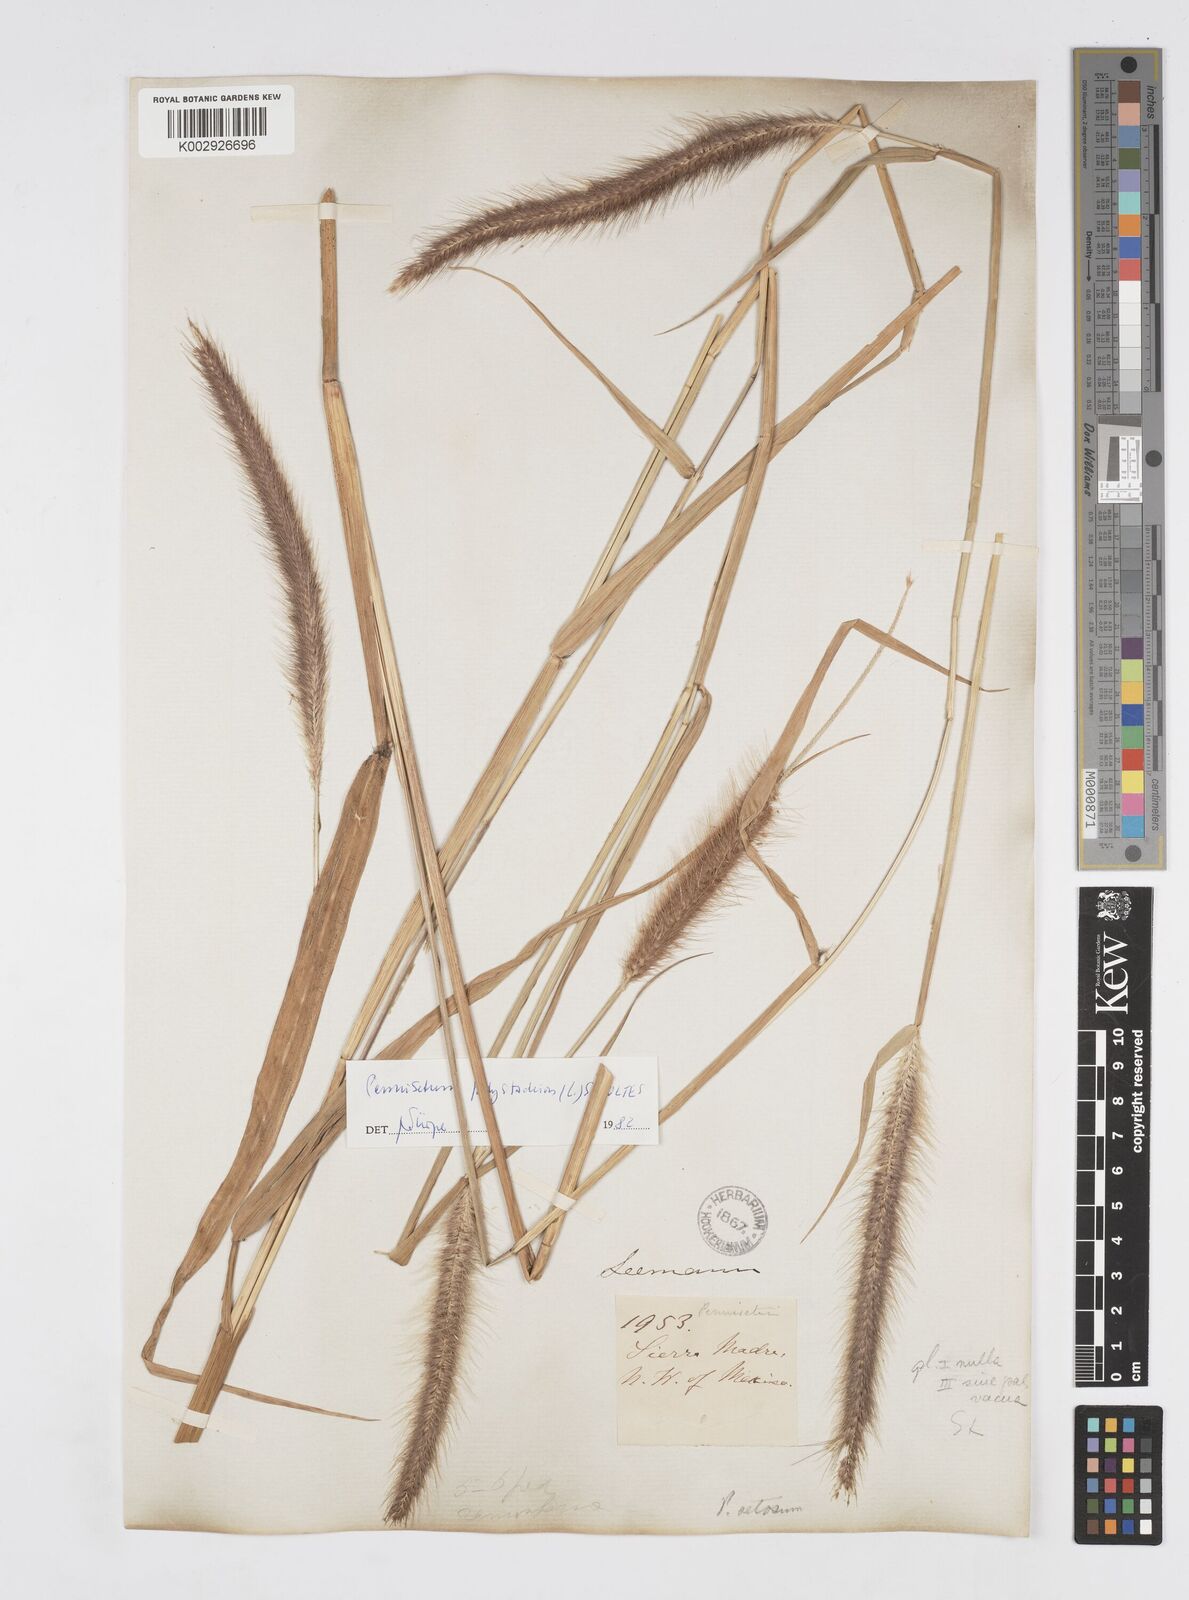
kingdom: Plantae
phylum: Tracheophyta
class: Liliopsida
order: Poales
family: Poaceae
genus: Cenchrus
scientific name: Cenchrus setosus
